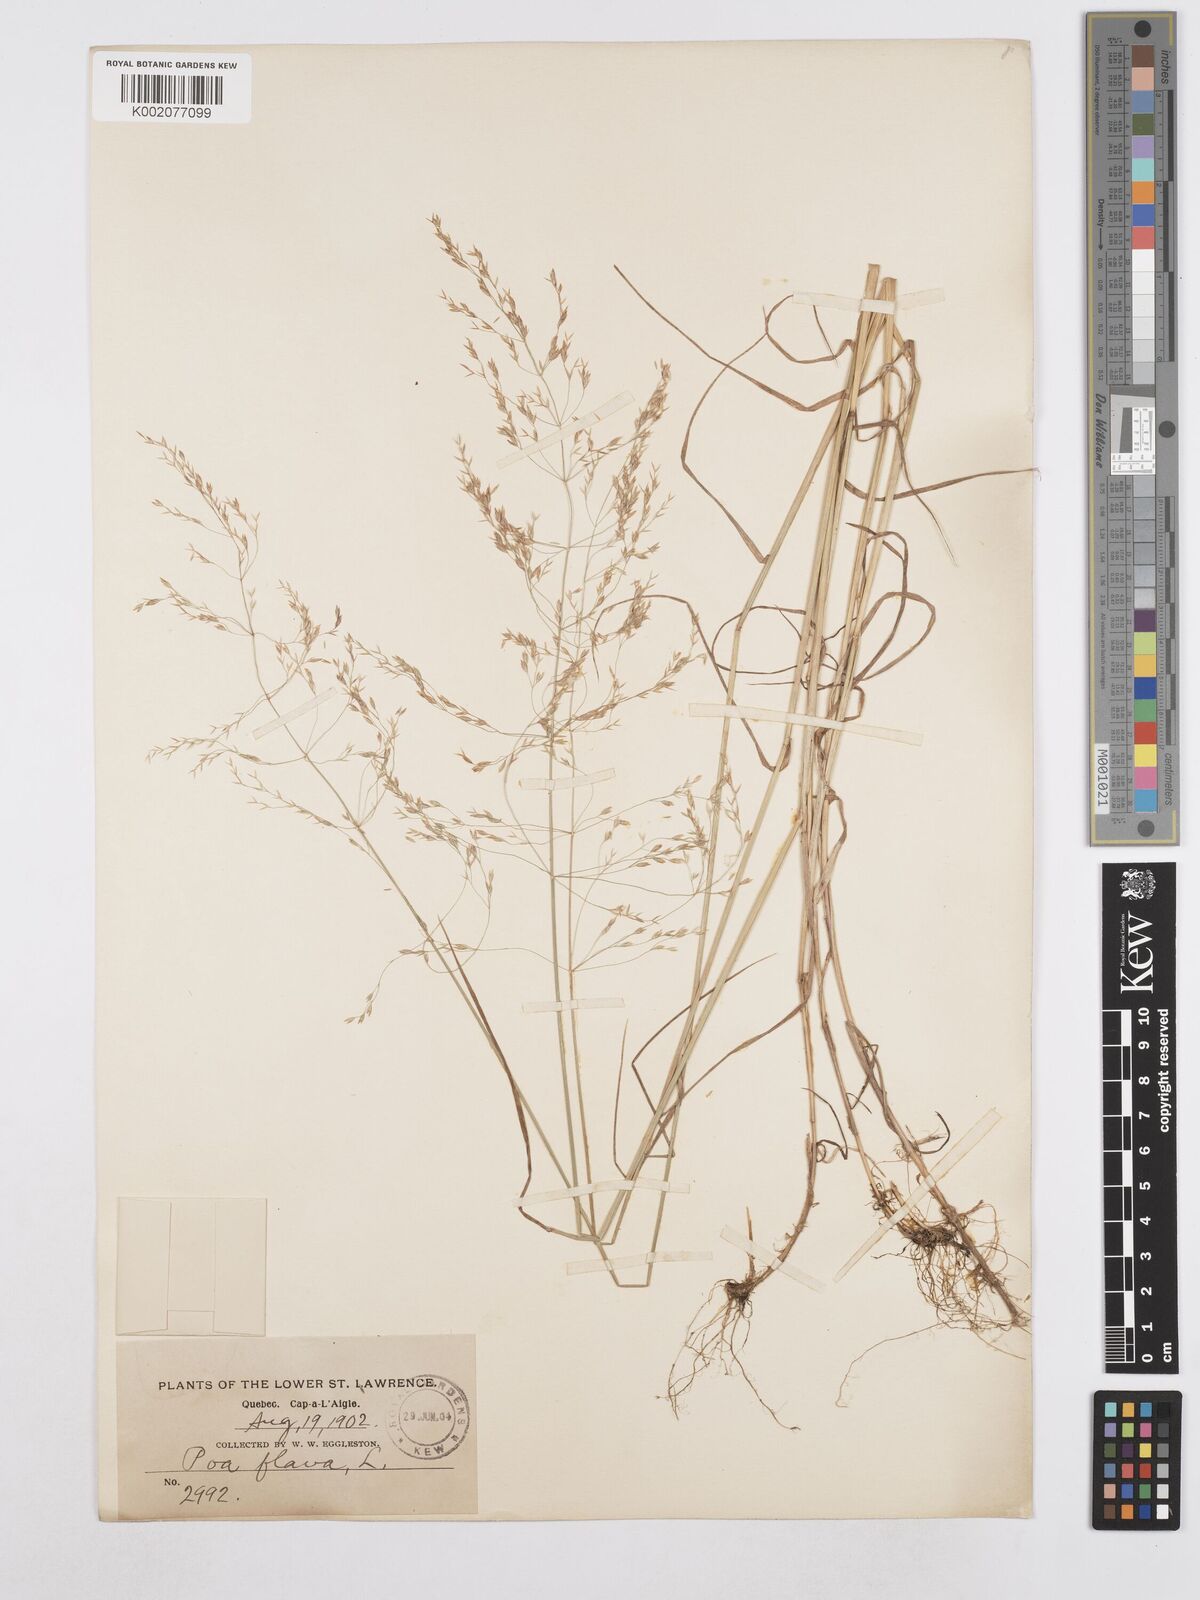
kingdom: Plantae
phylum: Tracheophyta
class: Liliopsida
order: Poales
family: Poaceae
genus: Poa
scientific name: Poa palustris
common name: Swamp meadow-grass
